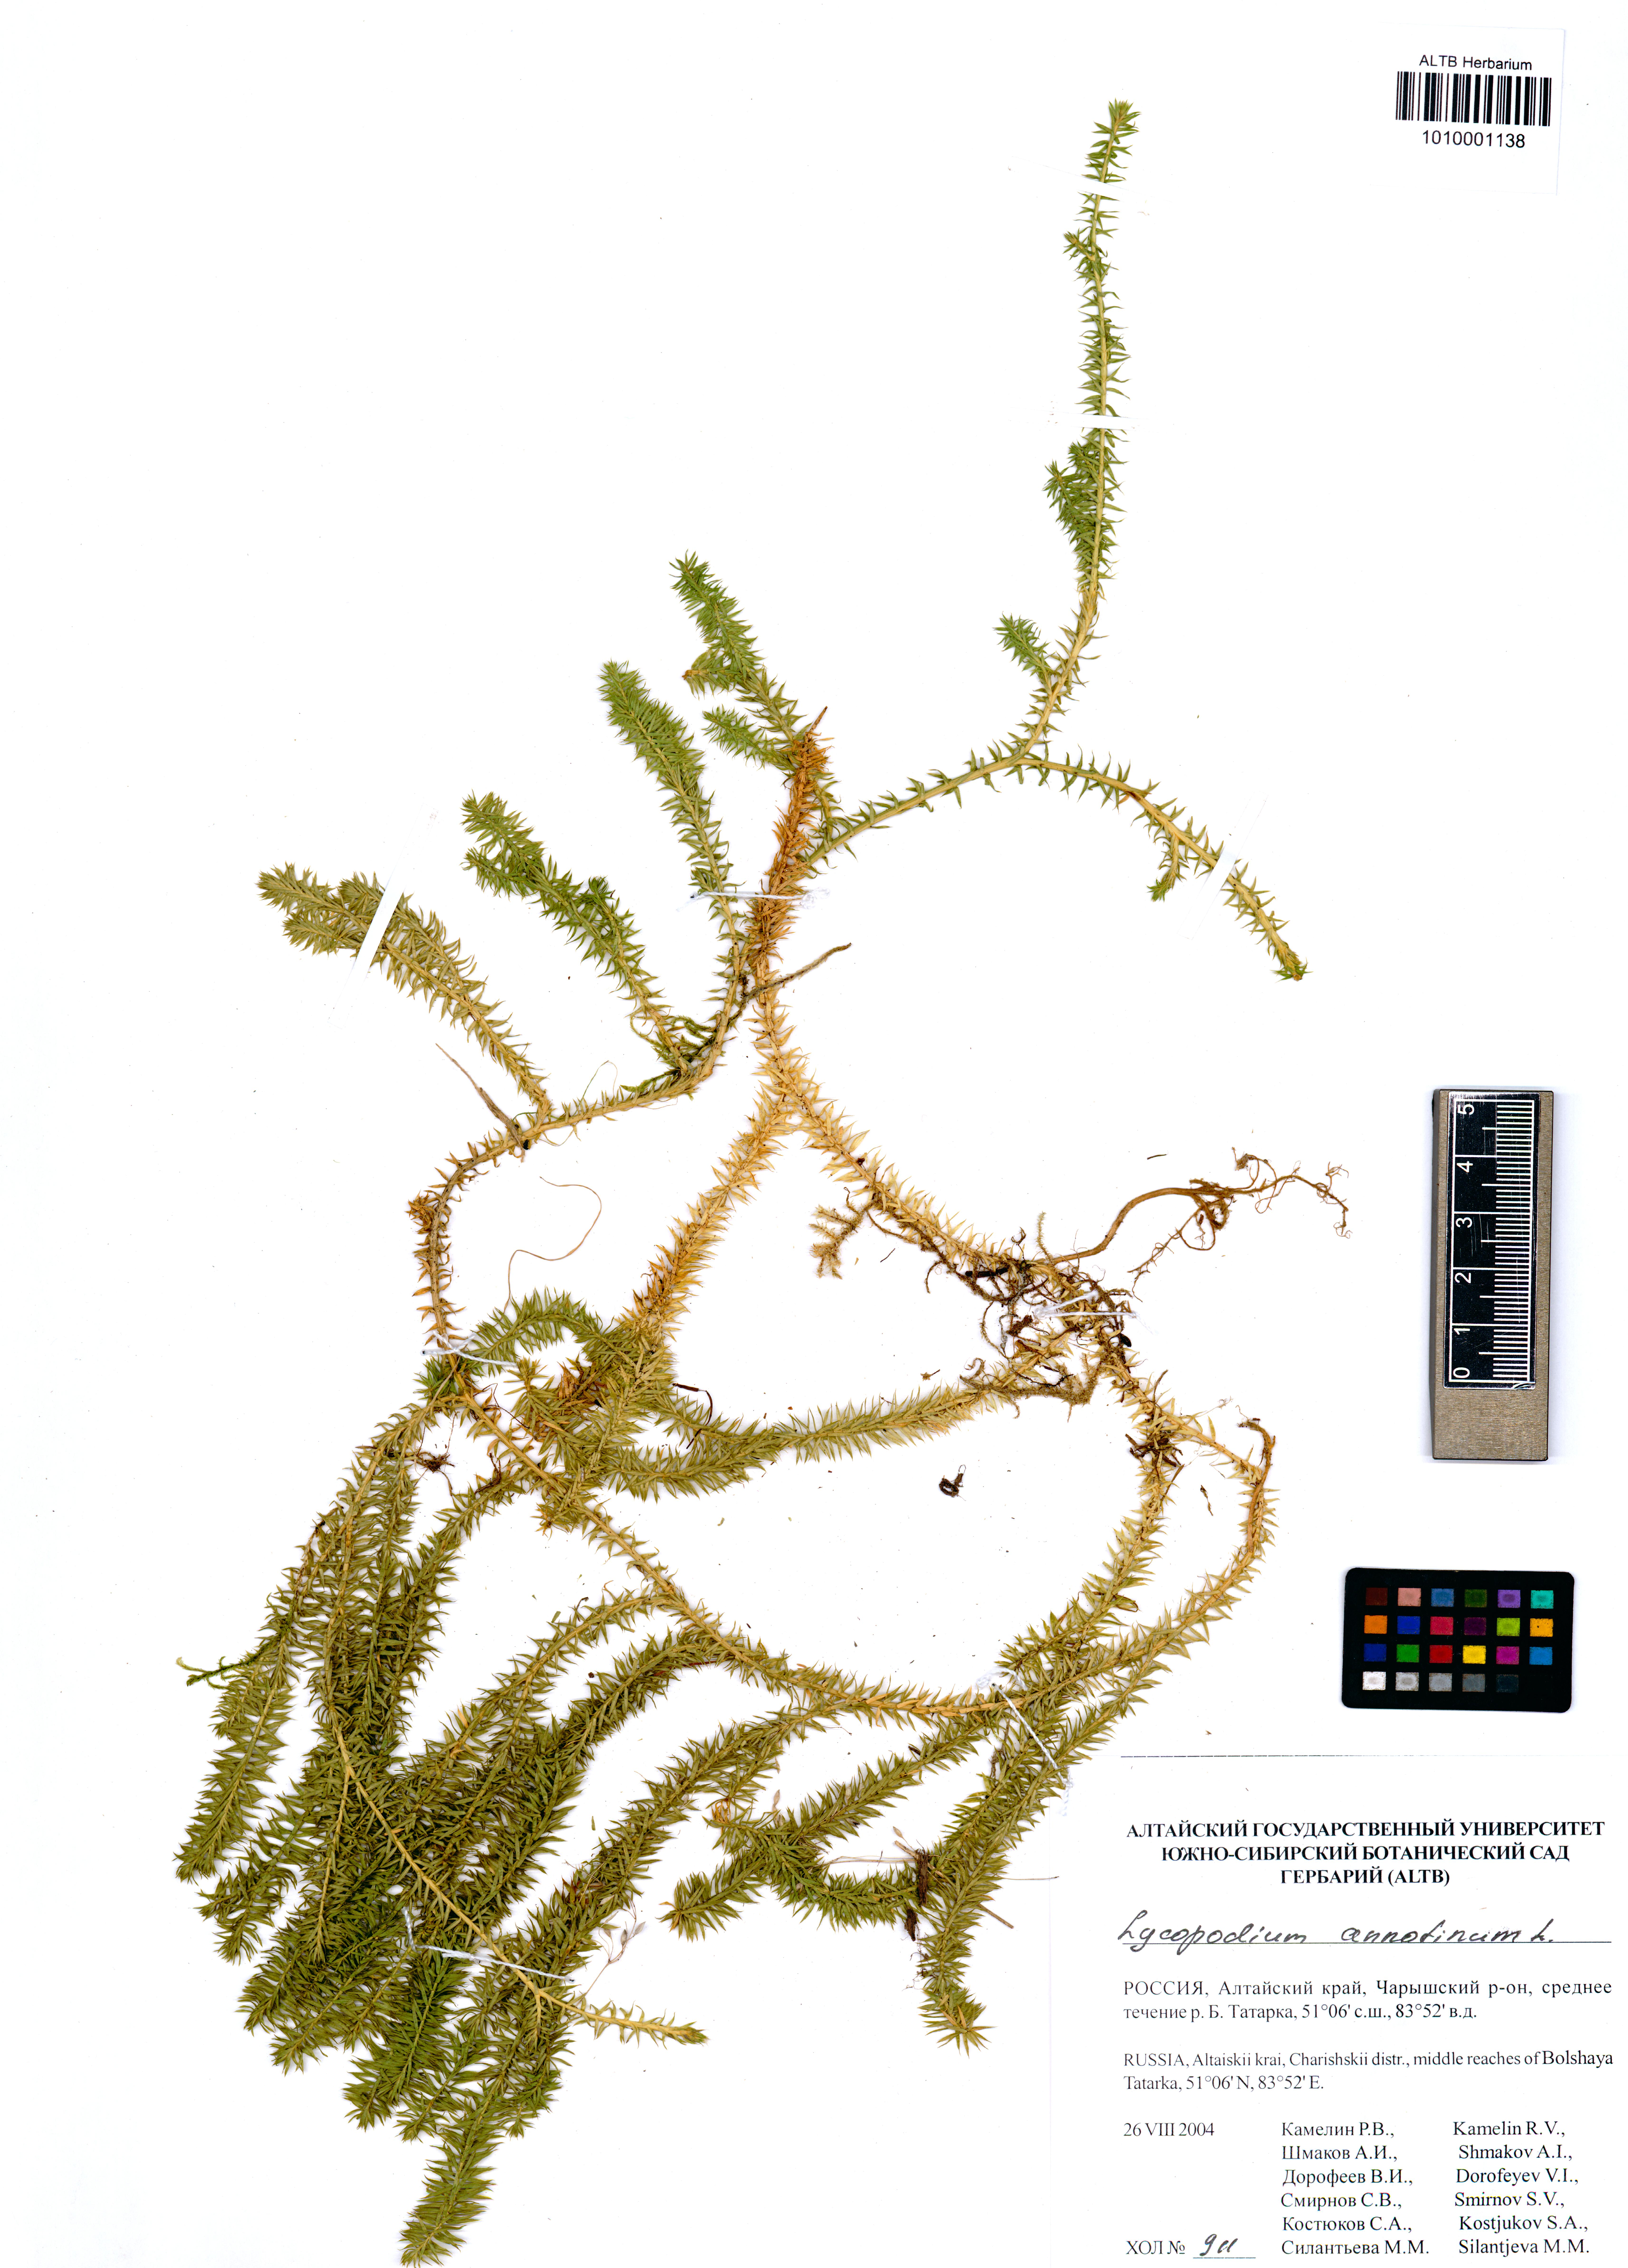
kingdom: Plantae
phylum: Tracheophyta
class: Lycopodiopsida
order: Lycopodiales
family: Lycopodiaceae
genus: Spinulum
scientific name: Spinulum annotinum
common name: Interrupted club-moss
